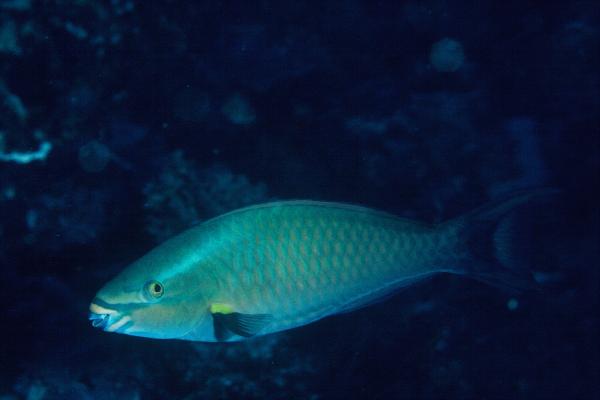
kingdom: Animalia
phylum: Chordata
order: Perciformes
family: Scaridae
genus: Scarus
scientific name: Scarus tricolor
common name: Tricolour parrotfish
